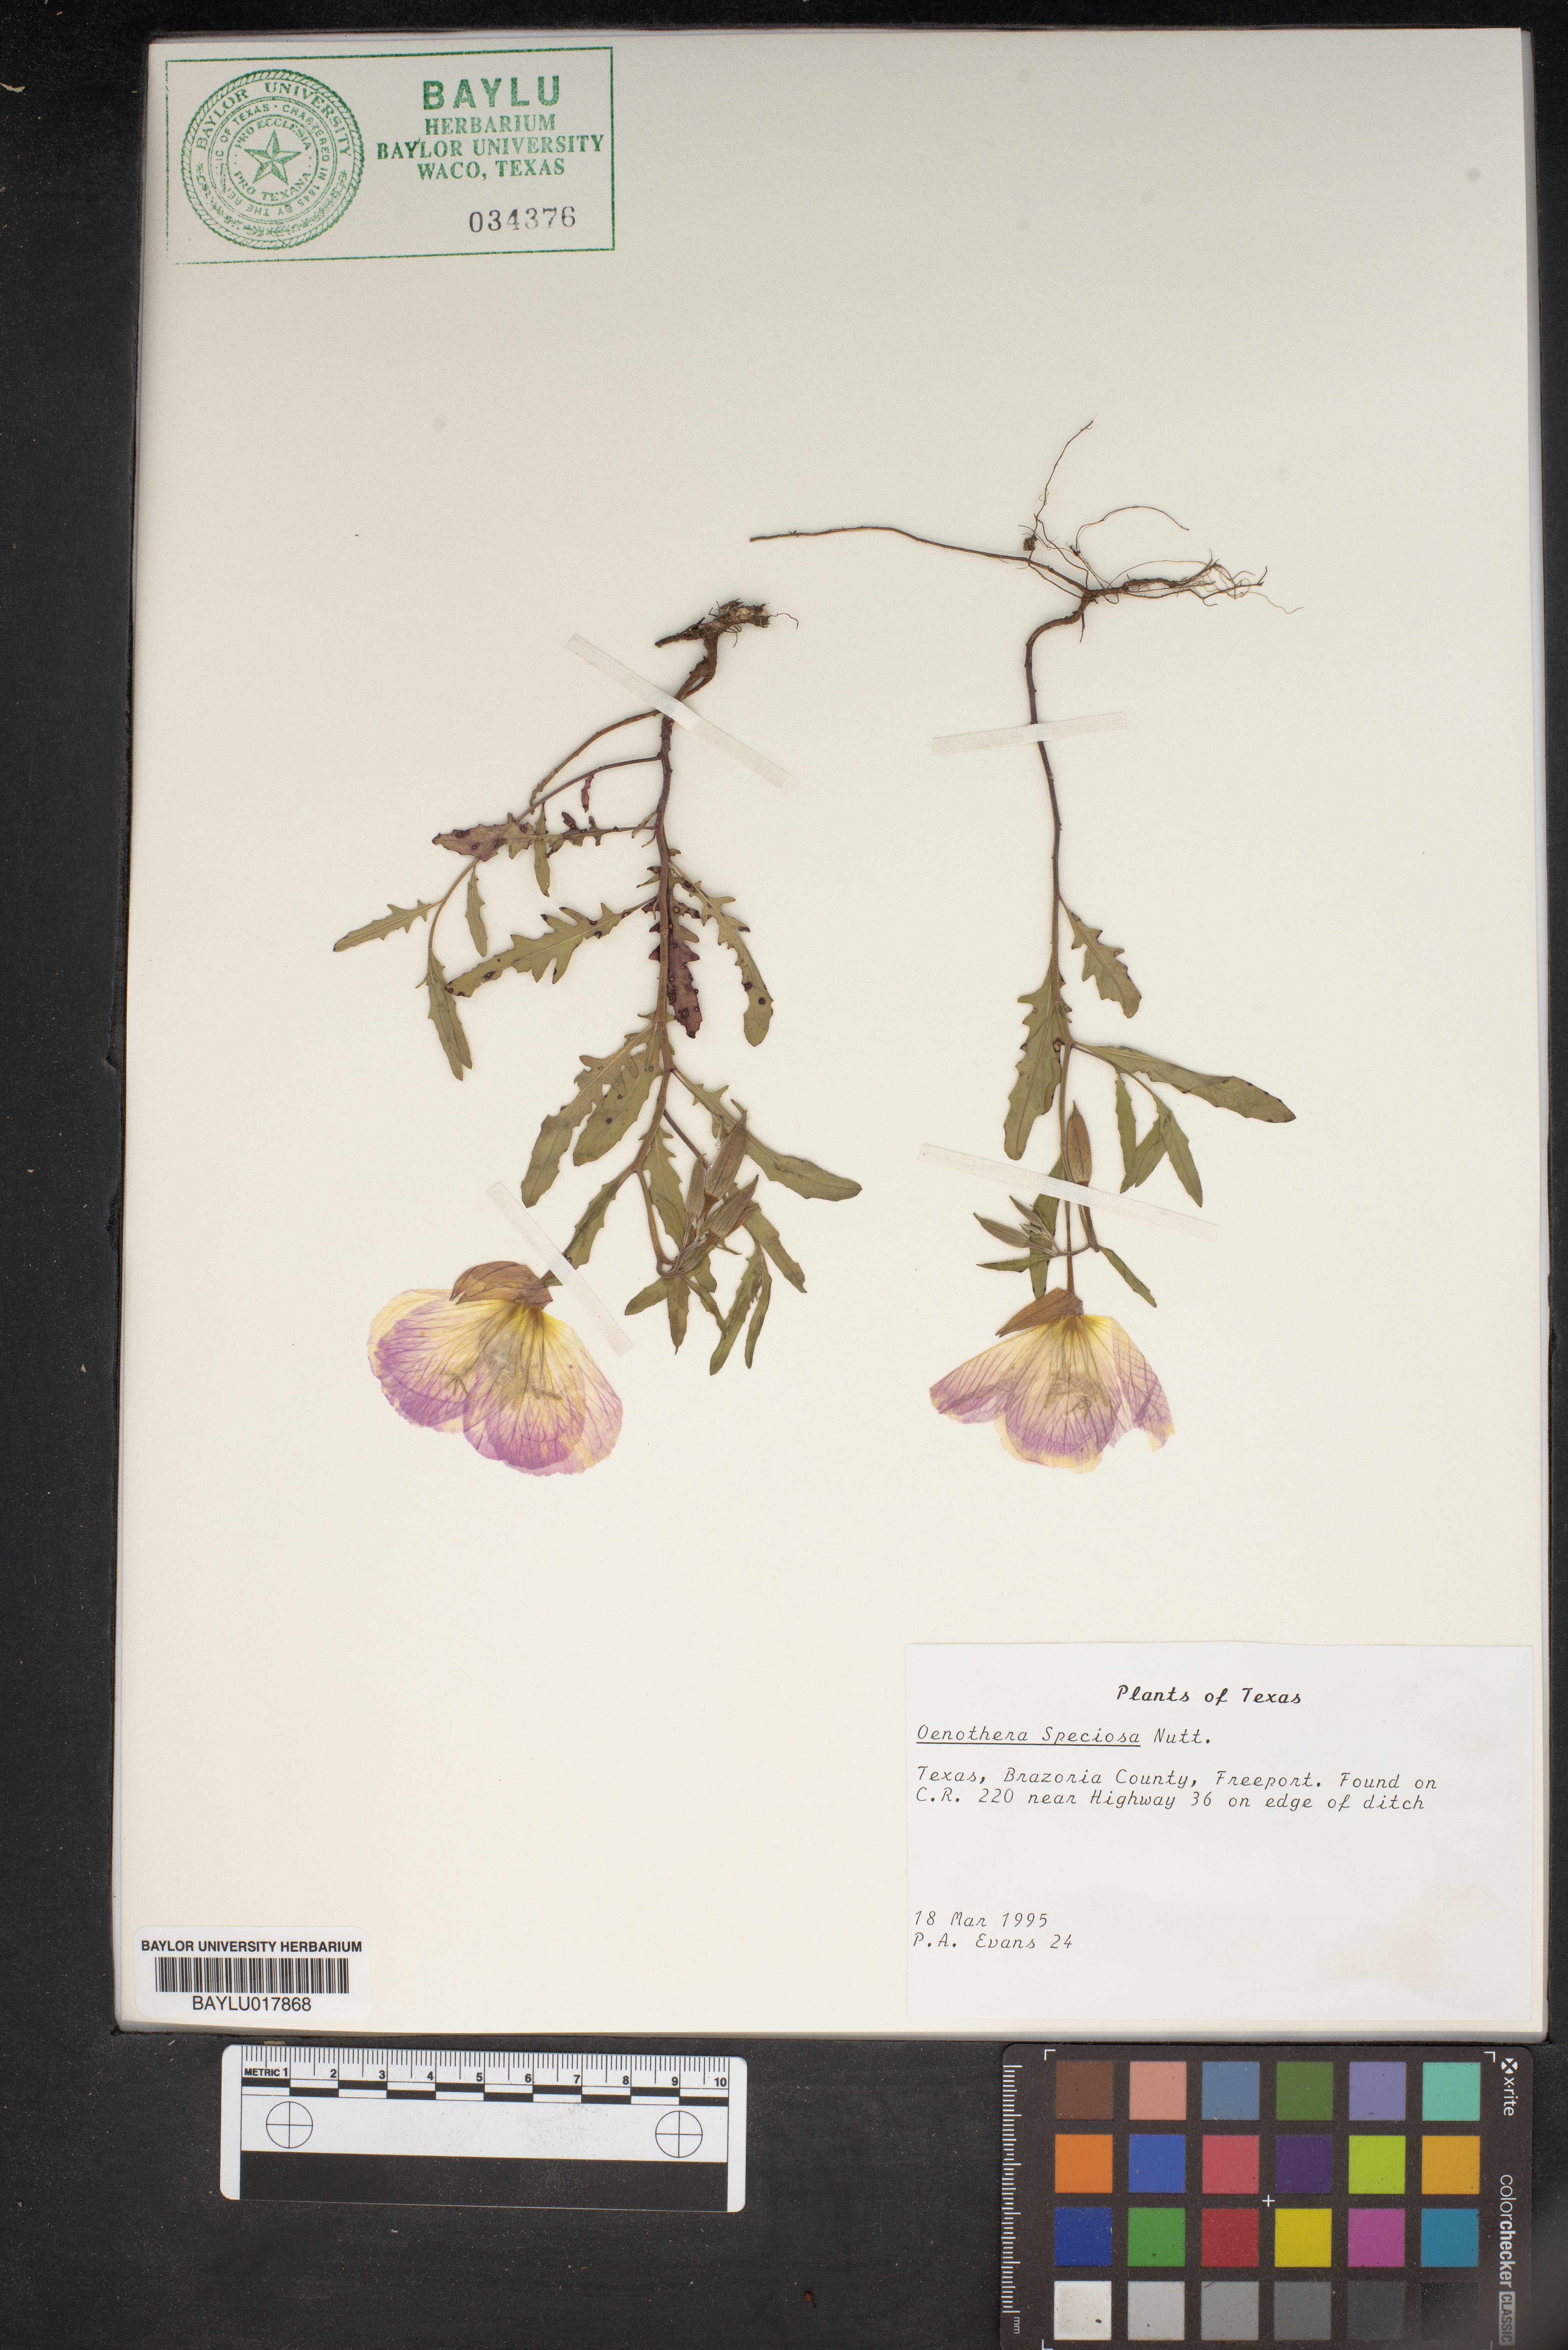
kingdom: Plantae
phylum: Tracheophyta
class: Magnoliopsida
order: Myrtales
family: Onagraceae
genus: Oenothera
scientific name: Oenothera speciosa
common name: White evening-primrose
